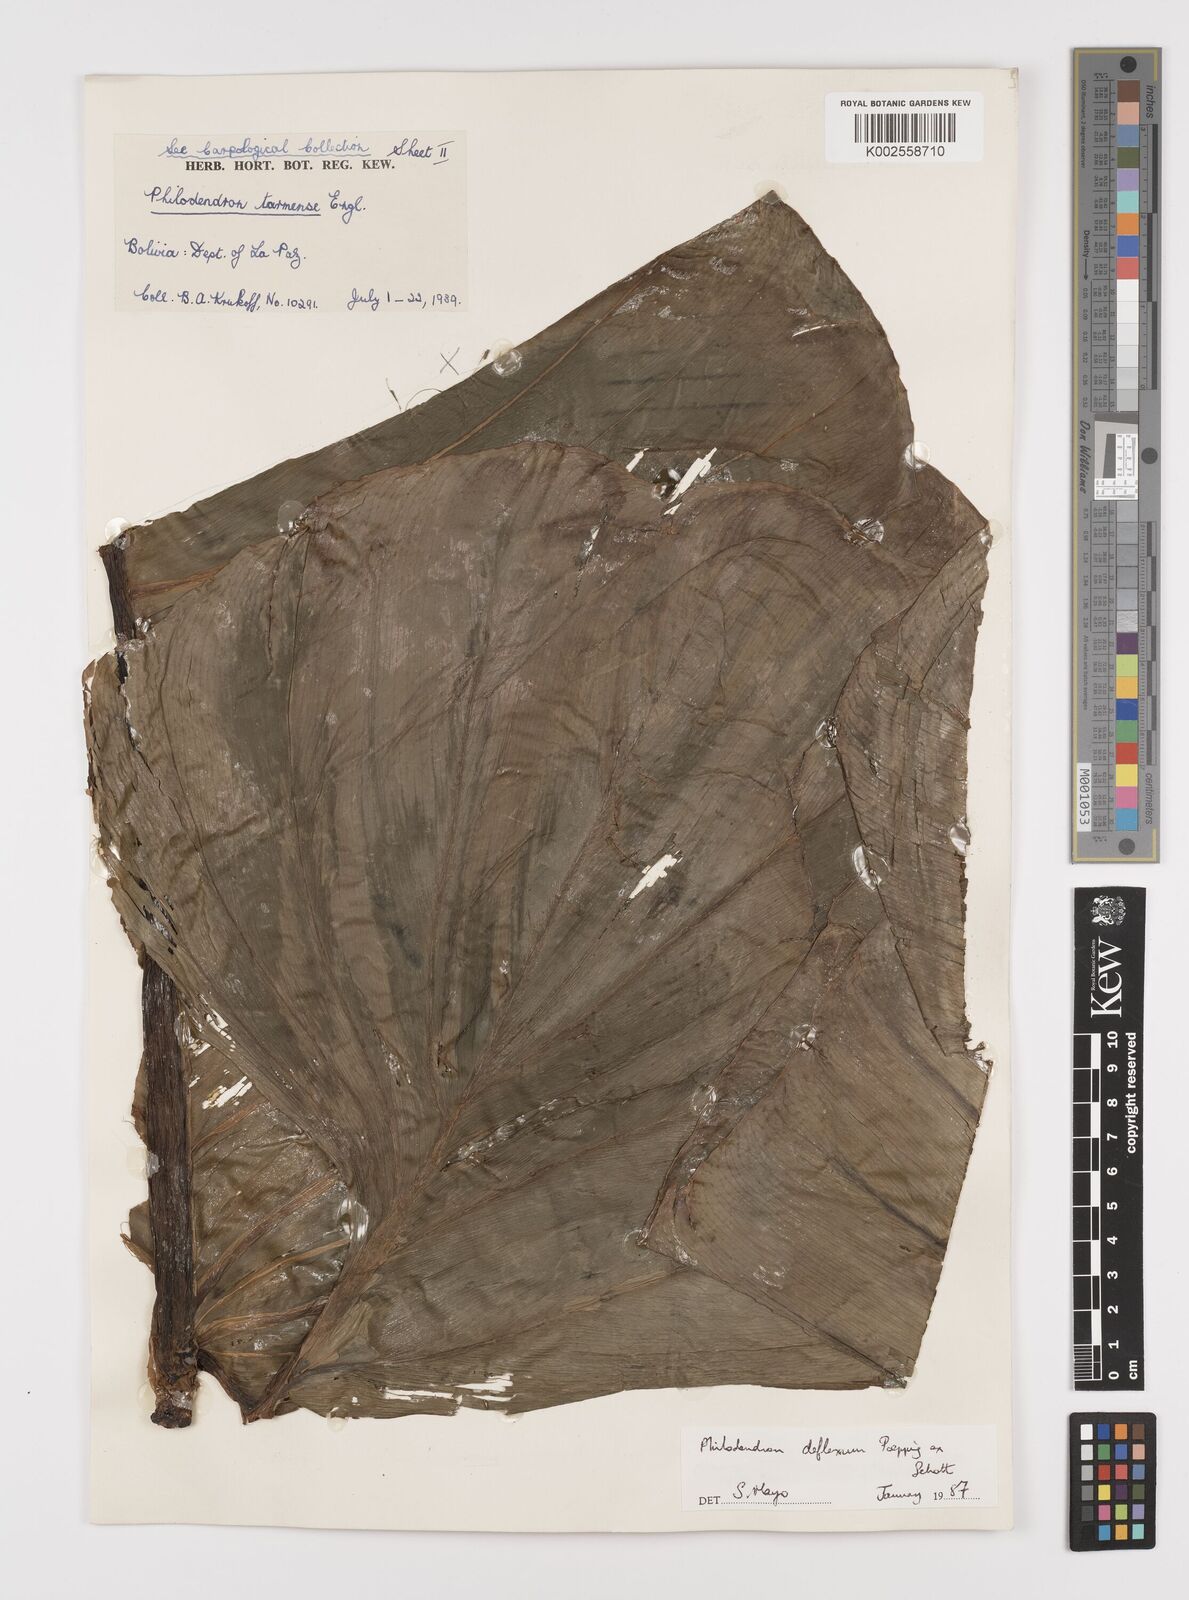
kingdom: Plantae
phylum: Tracheophyta
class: Liliopsida
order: Alismatales
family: Araceae
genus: Philodendron
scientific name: Philodendron deflexum
